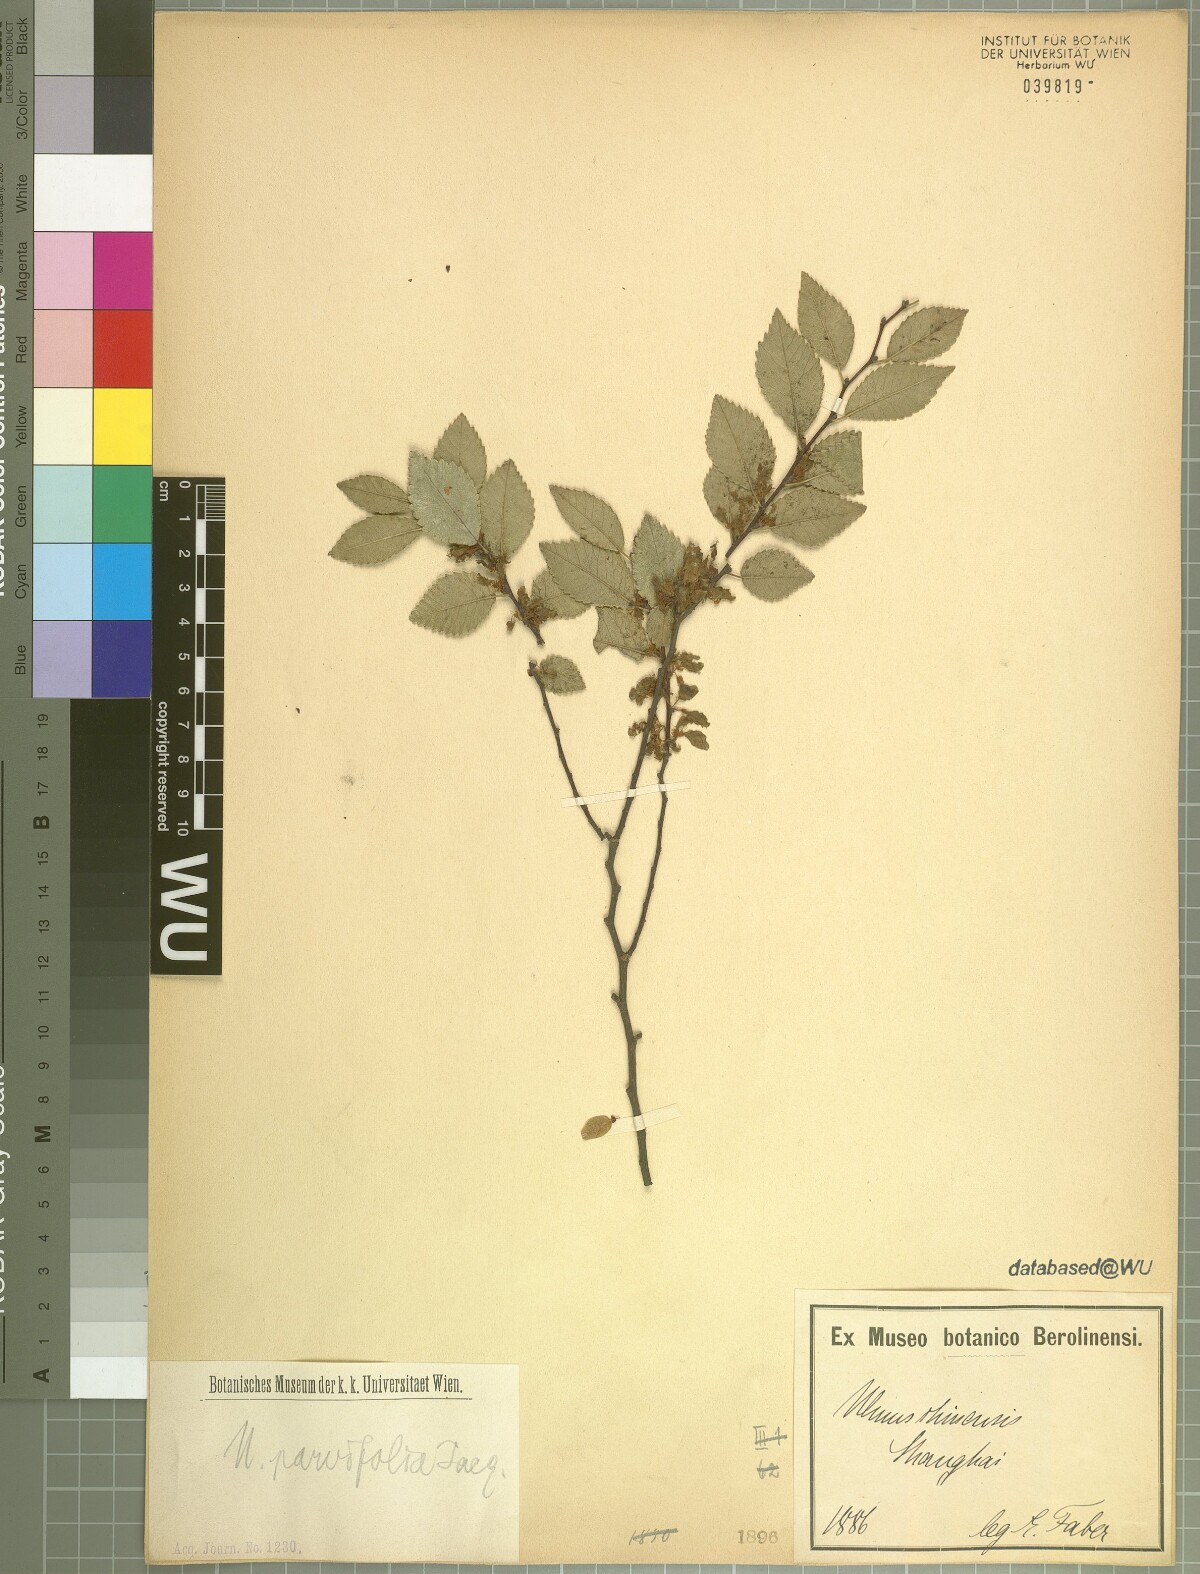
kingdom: Plantae
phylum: Tracheophyta
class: Magnoliopsida
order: Rosales
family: Ulmaceae
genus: Ulmus
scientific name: Ulmus parvifolia
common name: Chinese elm
